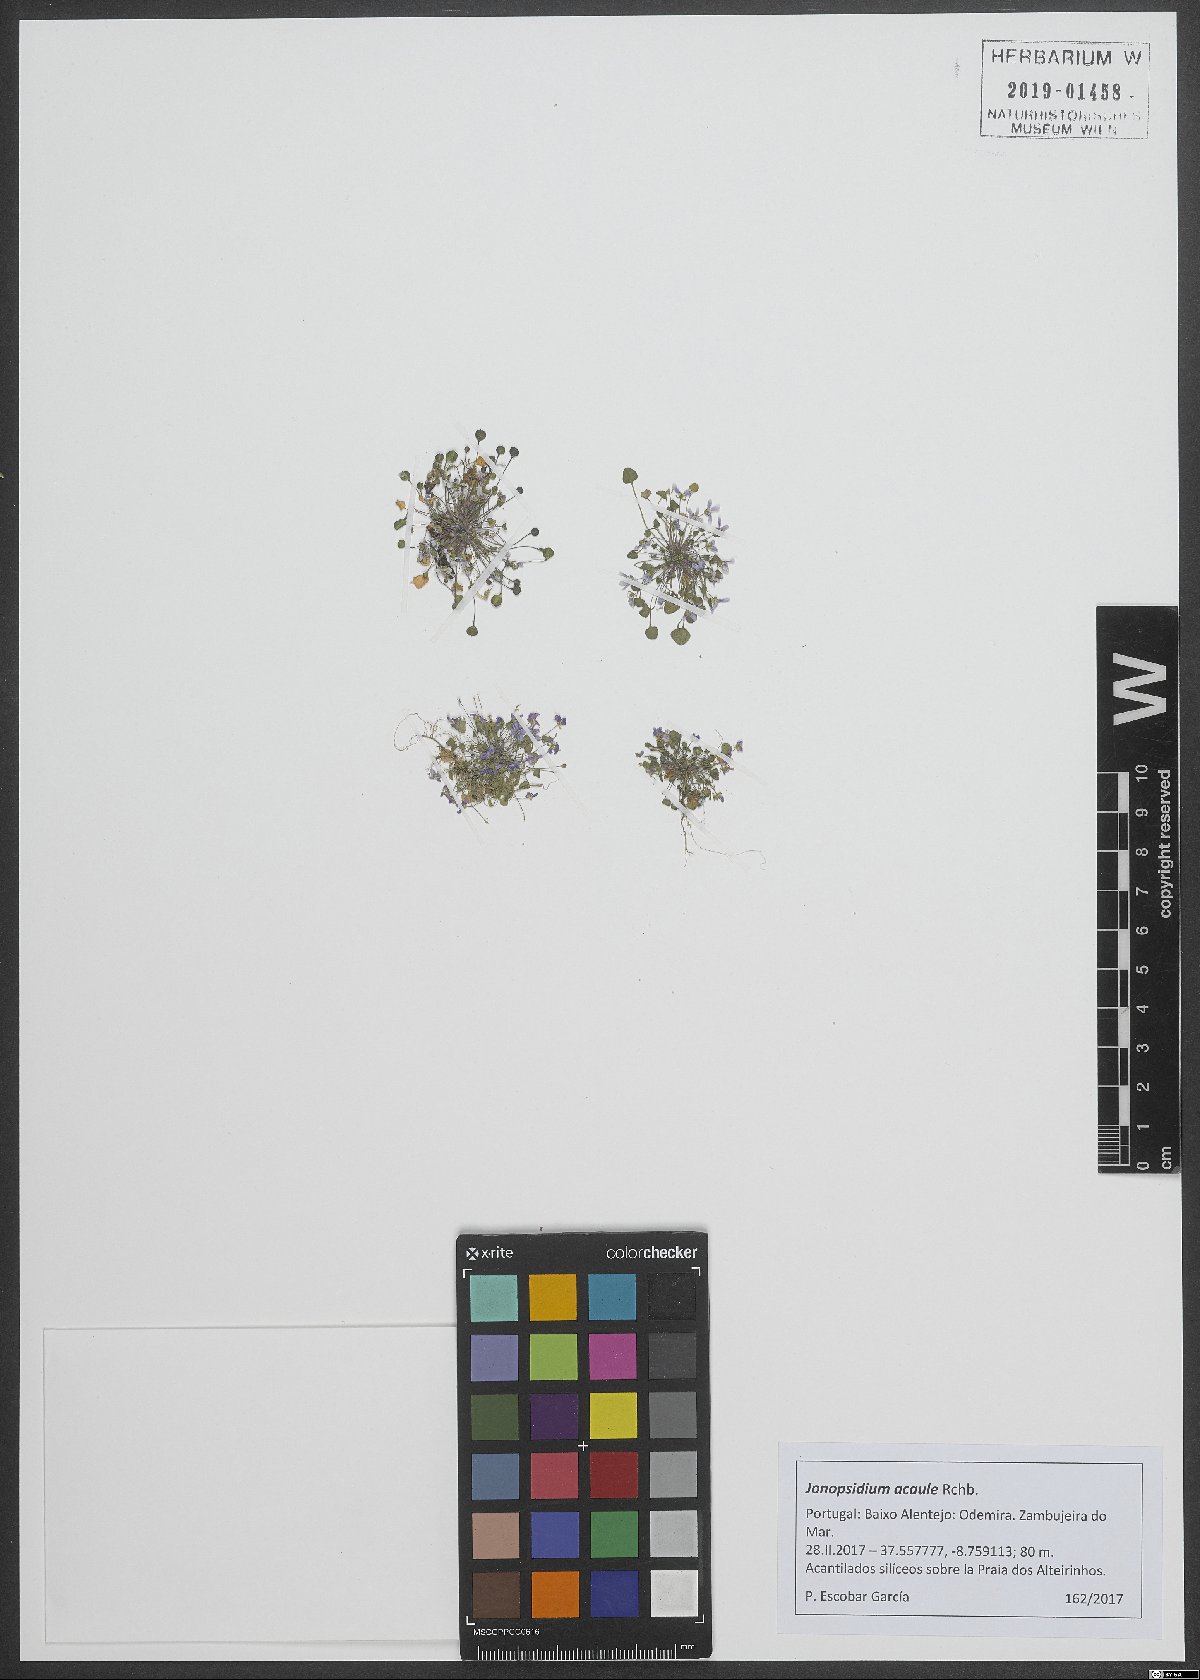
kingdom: Plantae
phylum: Tracheophyta
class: Magnoliopsida
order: Brassicales
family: Brassicaceae
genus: Ionopsidium
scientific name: Ionopsidium acaule
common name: False diamondflower
